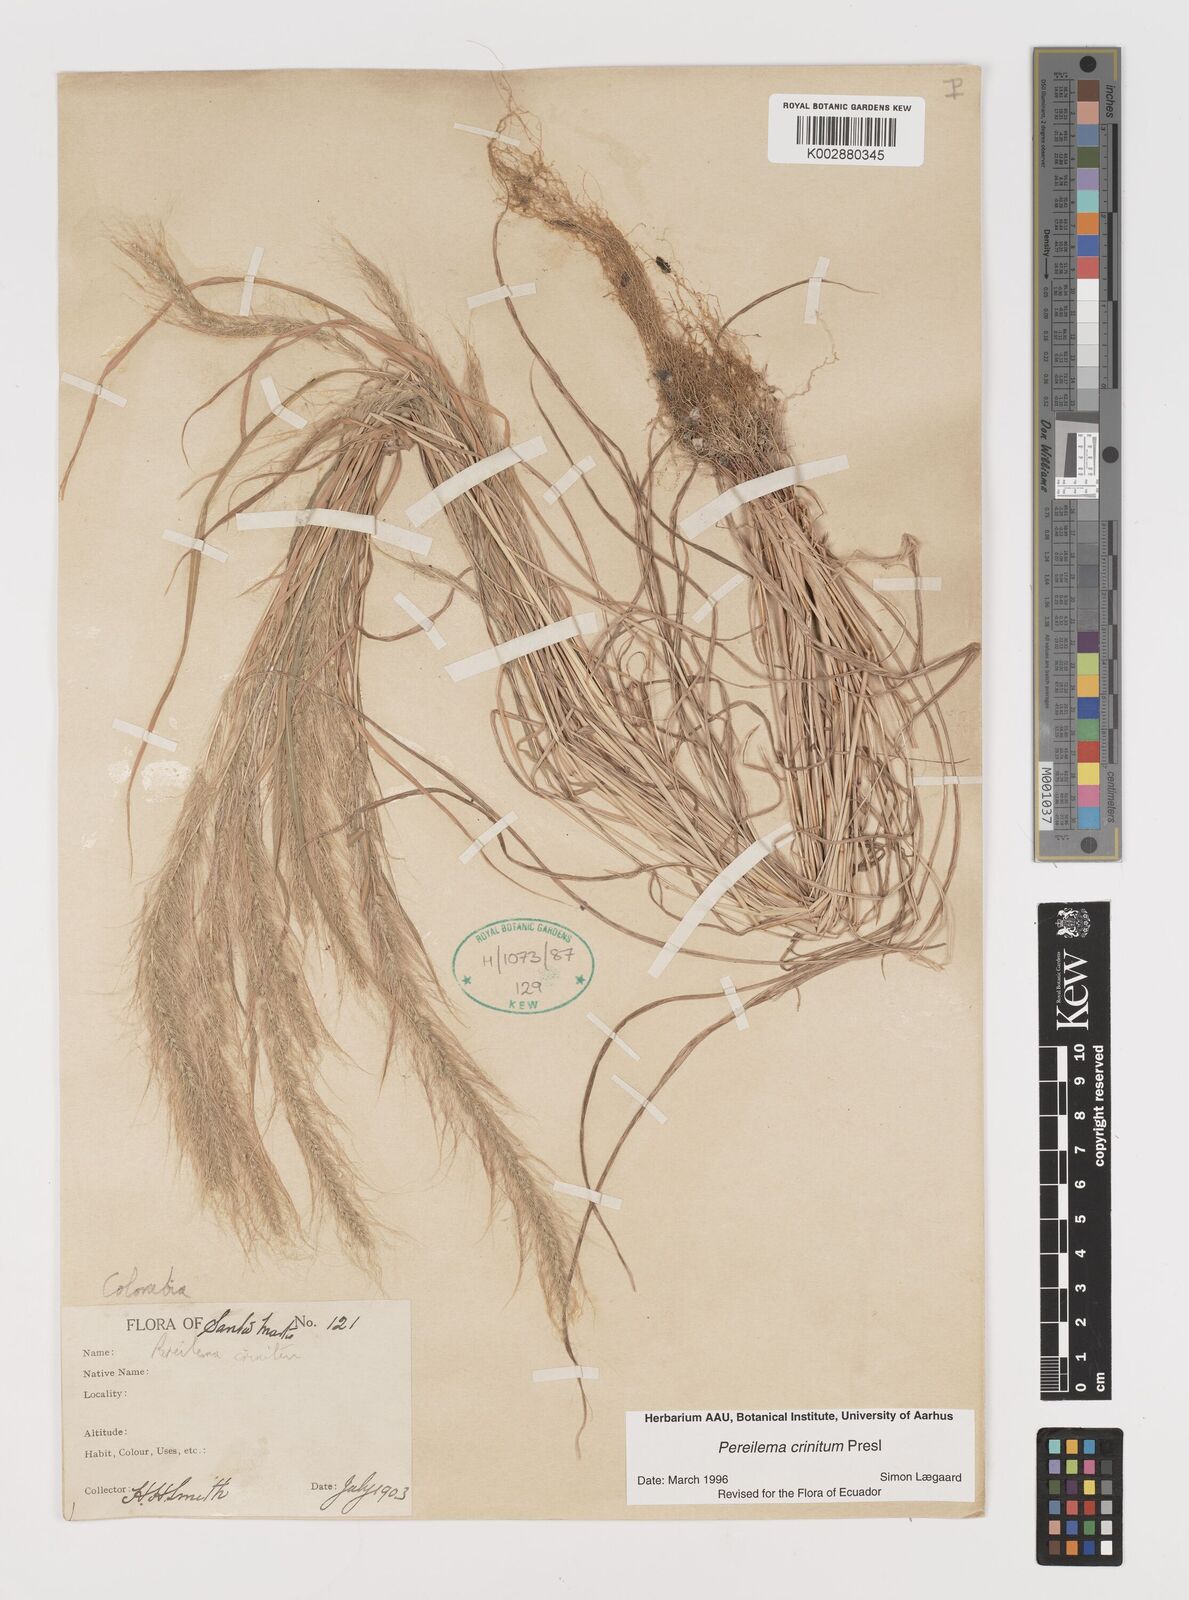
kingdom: Plantae
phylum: Tracheophyta
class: Liliopsida
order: Poales
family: Poaceae
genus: Muhlenbergia
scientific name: Muhlenbergia pereilema
